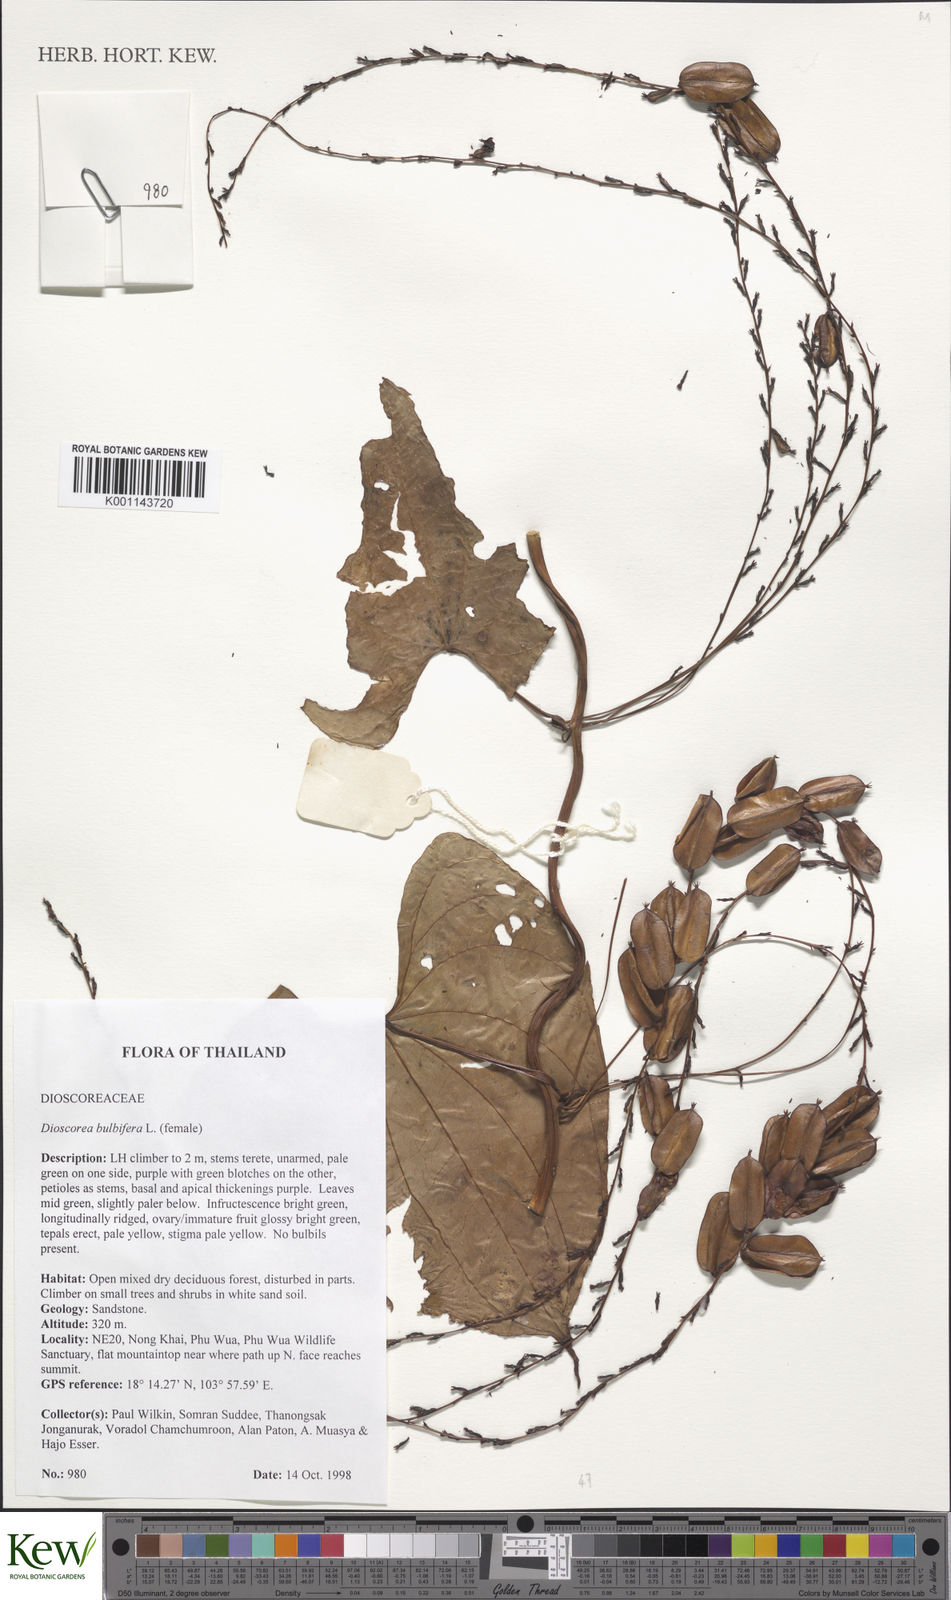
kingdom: Plantae
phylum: Tracheophyta
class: Liliopsida
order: Dioscoreales
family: Dioscoreaceae
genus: Dioscorea
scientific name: Dioscorea bulbifera
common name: Air yam
